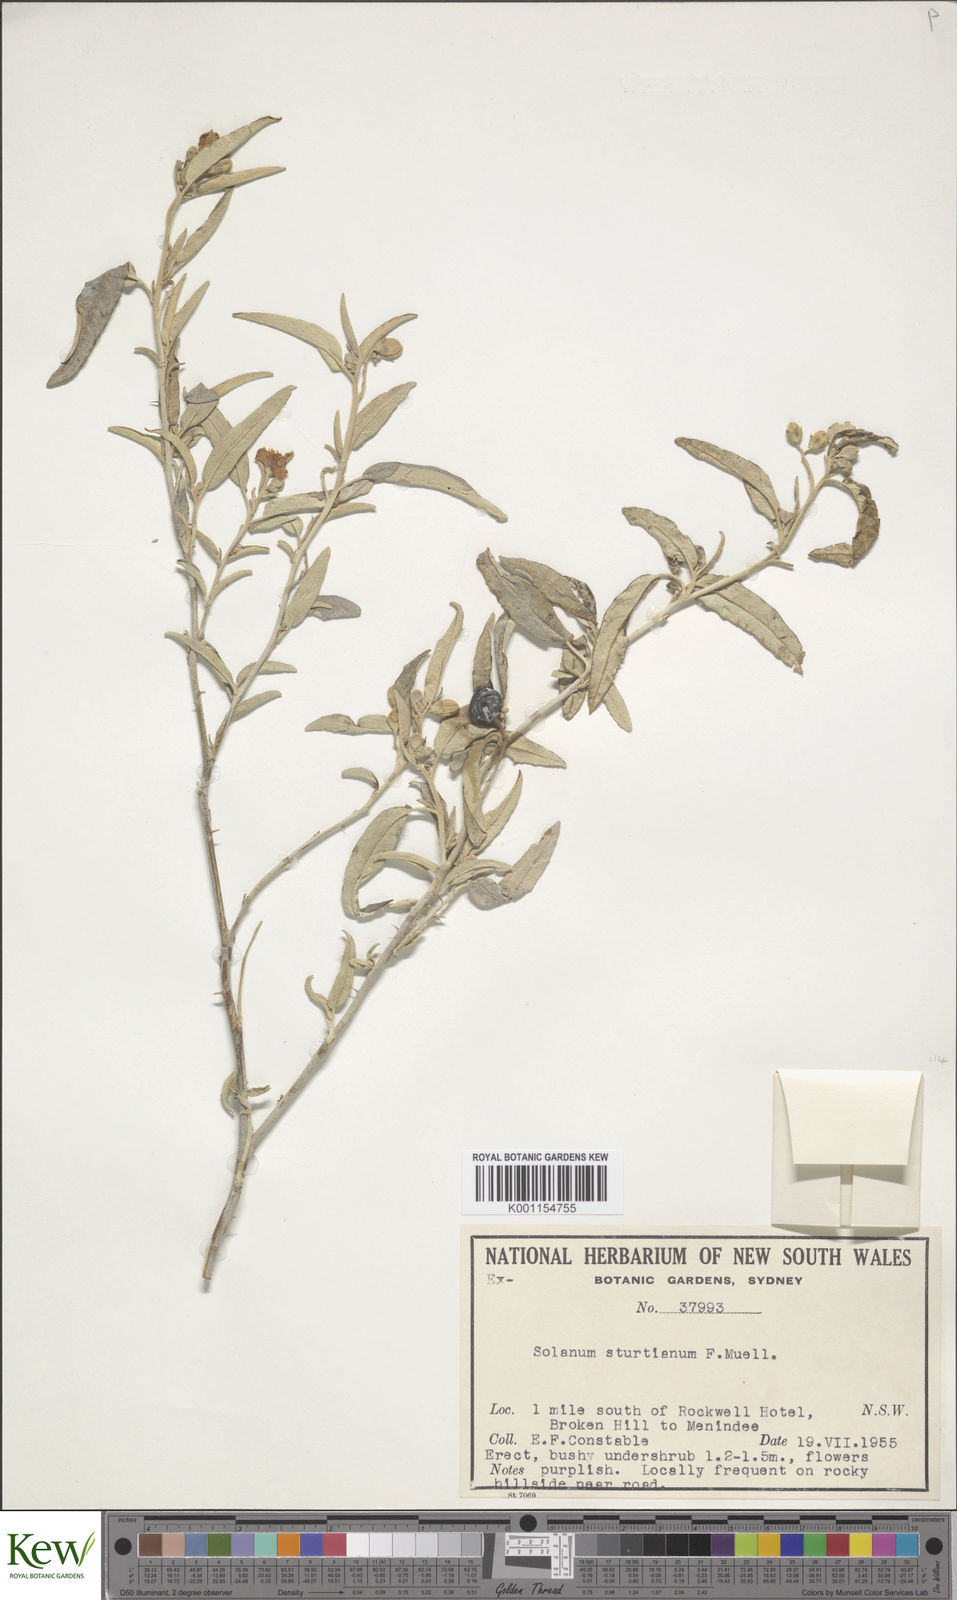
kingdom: Plantae
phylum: Tracheophyta
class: Magnoliopsida
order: Solanales
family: Solanaceae
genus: Solanum
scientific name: Solanum sturtianum
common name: Thargomindah nightshade
